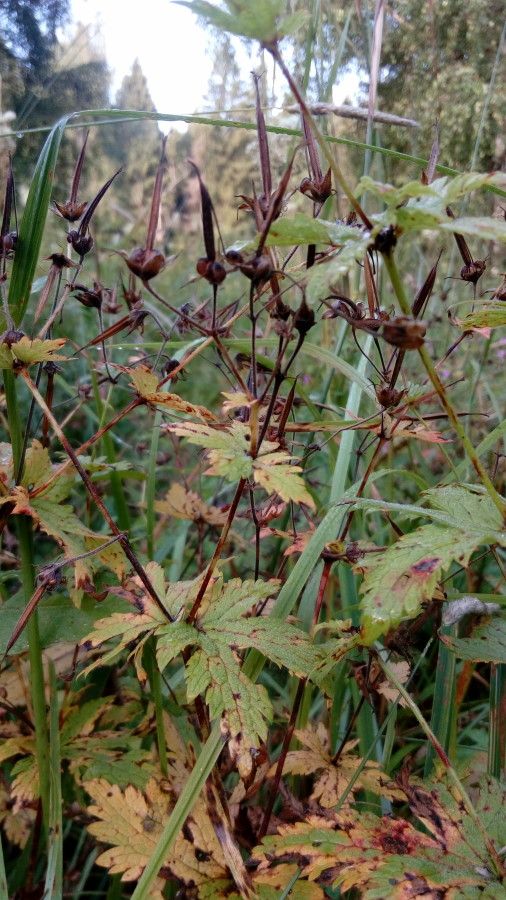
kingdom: Plantae
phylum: Tracheophyta
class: Magnoliopsida
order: Geraniales
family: Geraniaceae
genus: Geranium
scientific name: Geranium pratense
